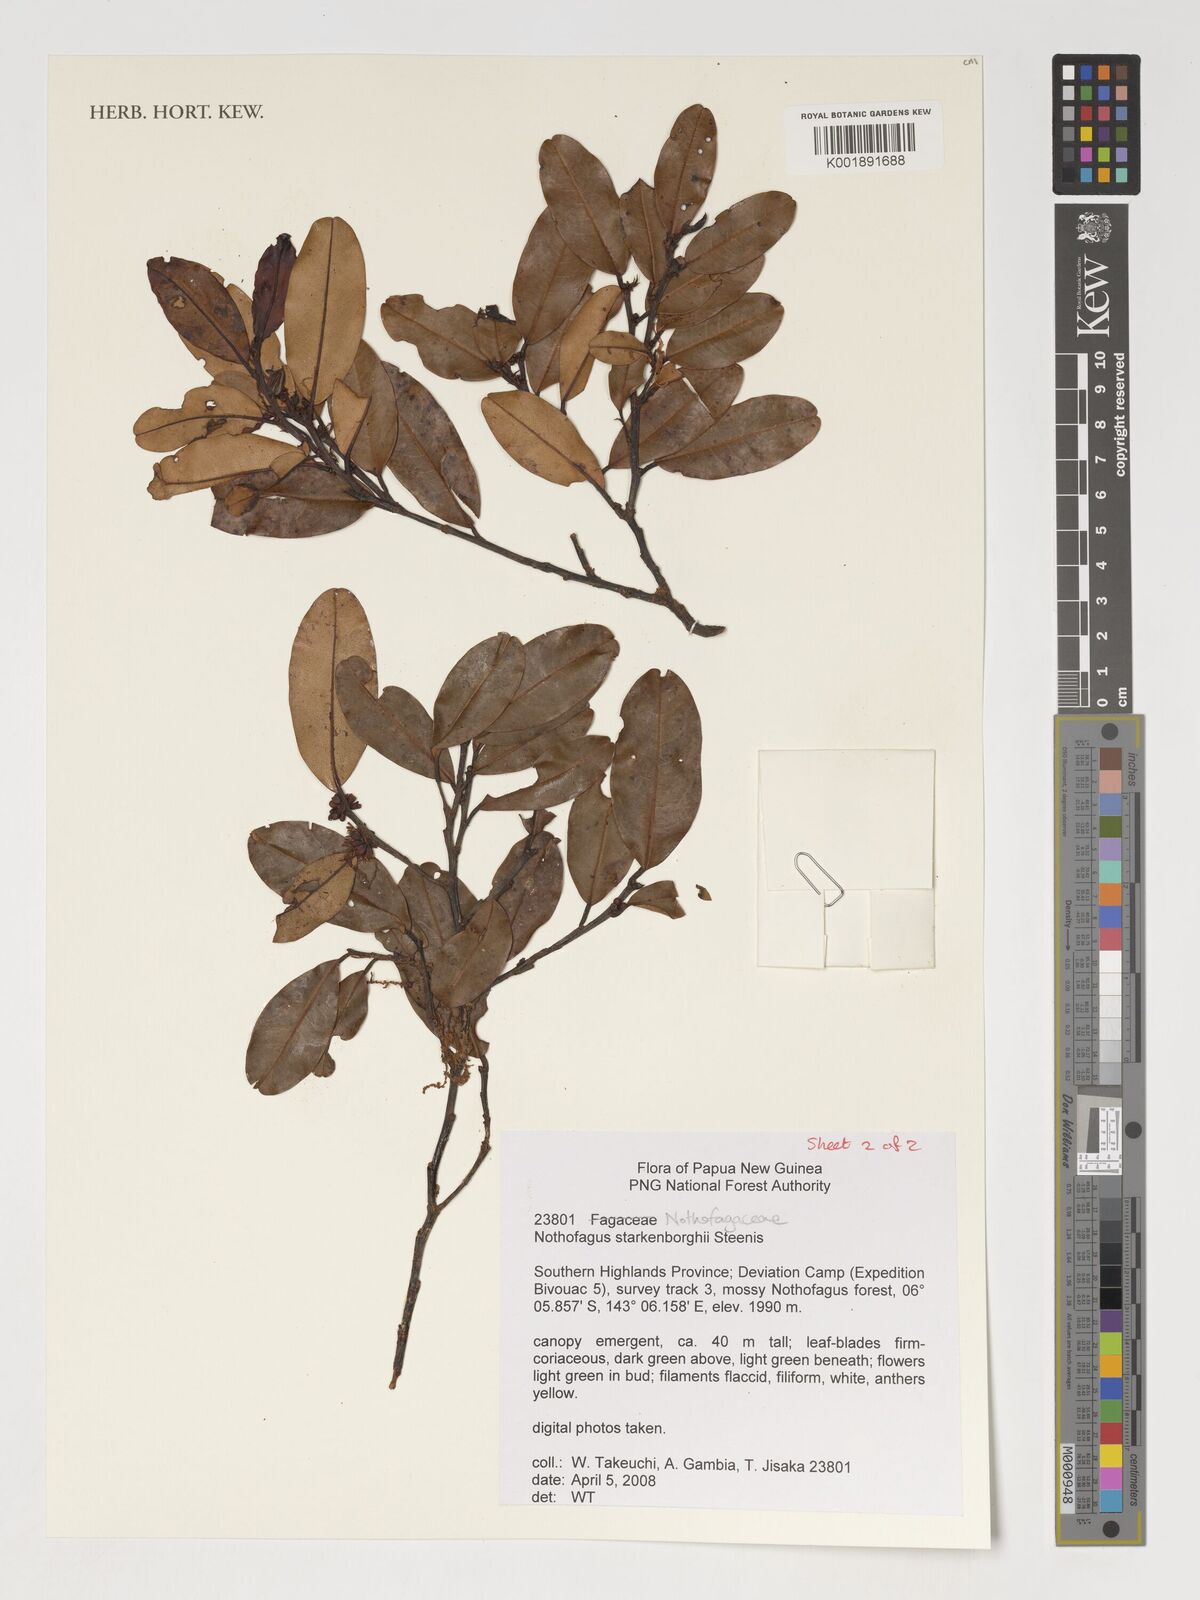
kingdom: Plantae
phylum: Tracheophyta
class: Magnoliopsida
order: Fagales
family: Nothofagaceae
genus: Nothofagus
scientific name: Nothofagus starkenborghiorum
